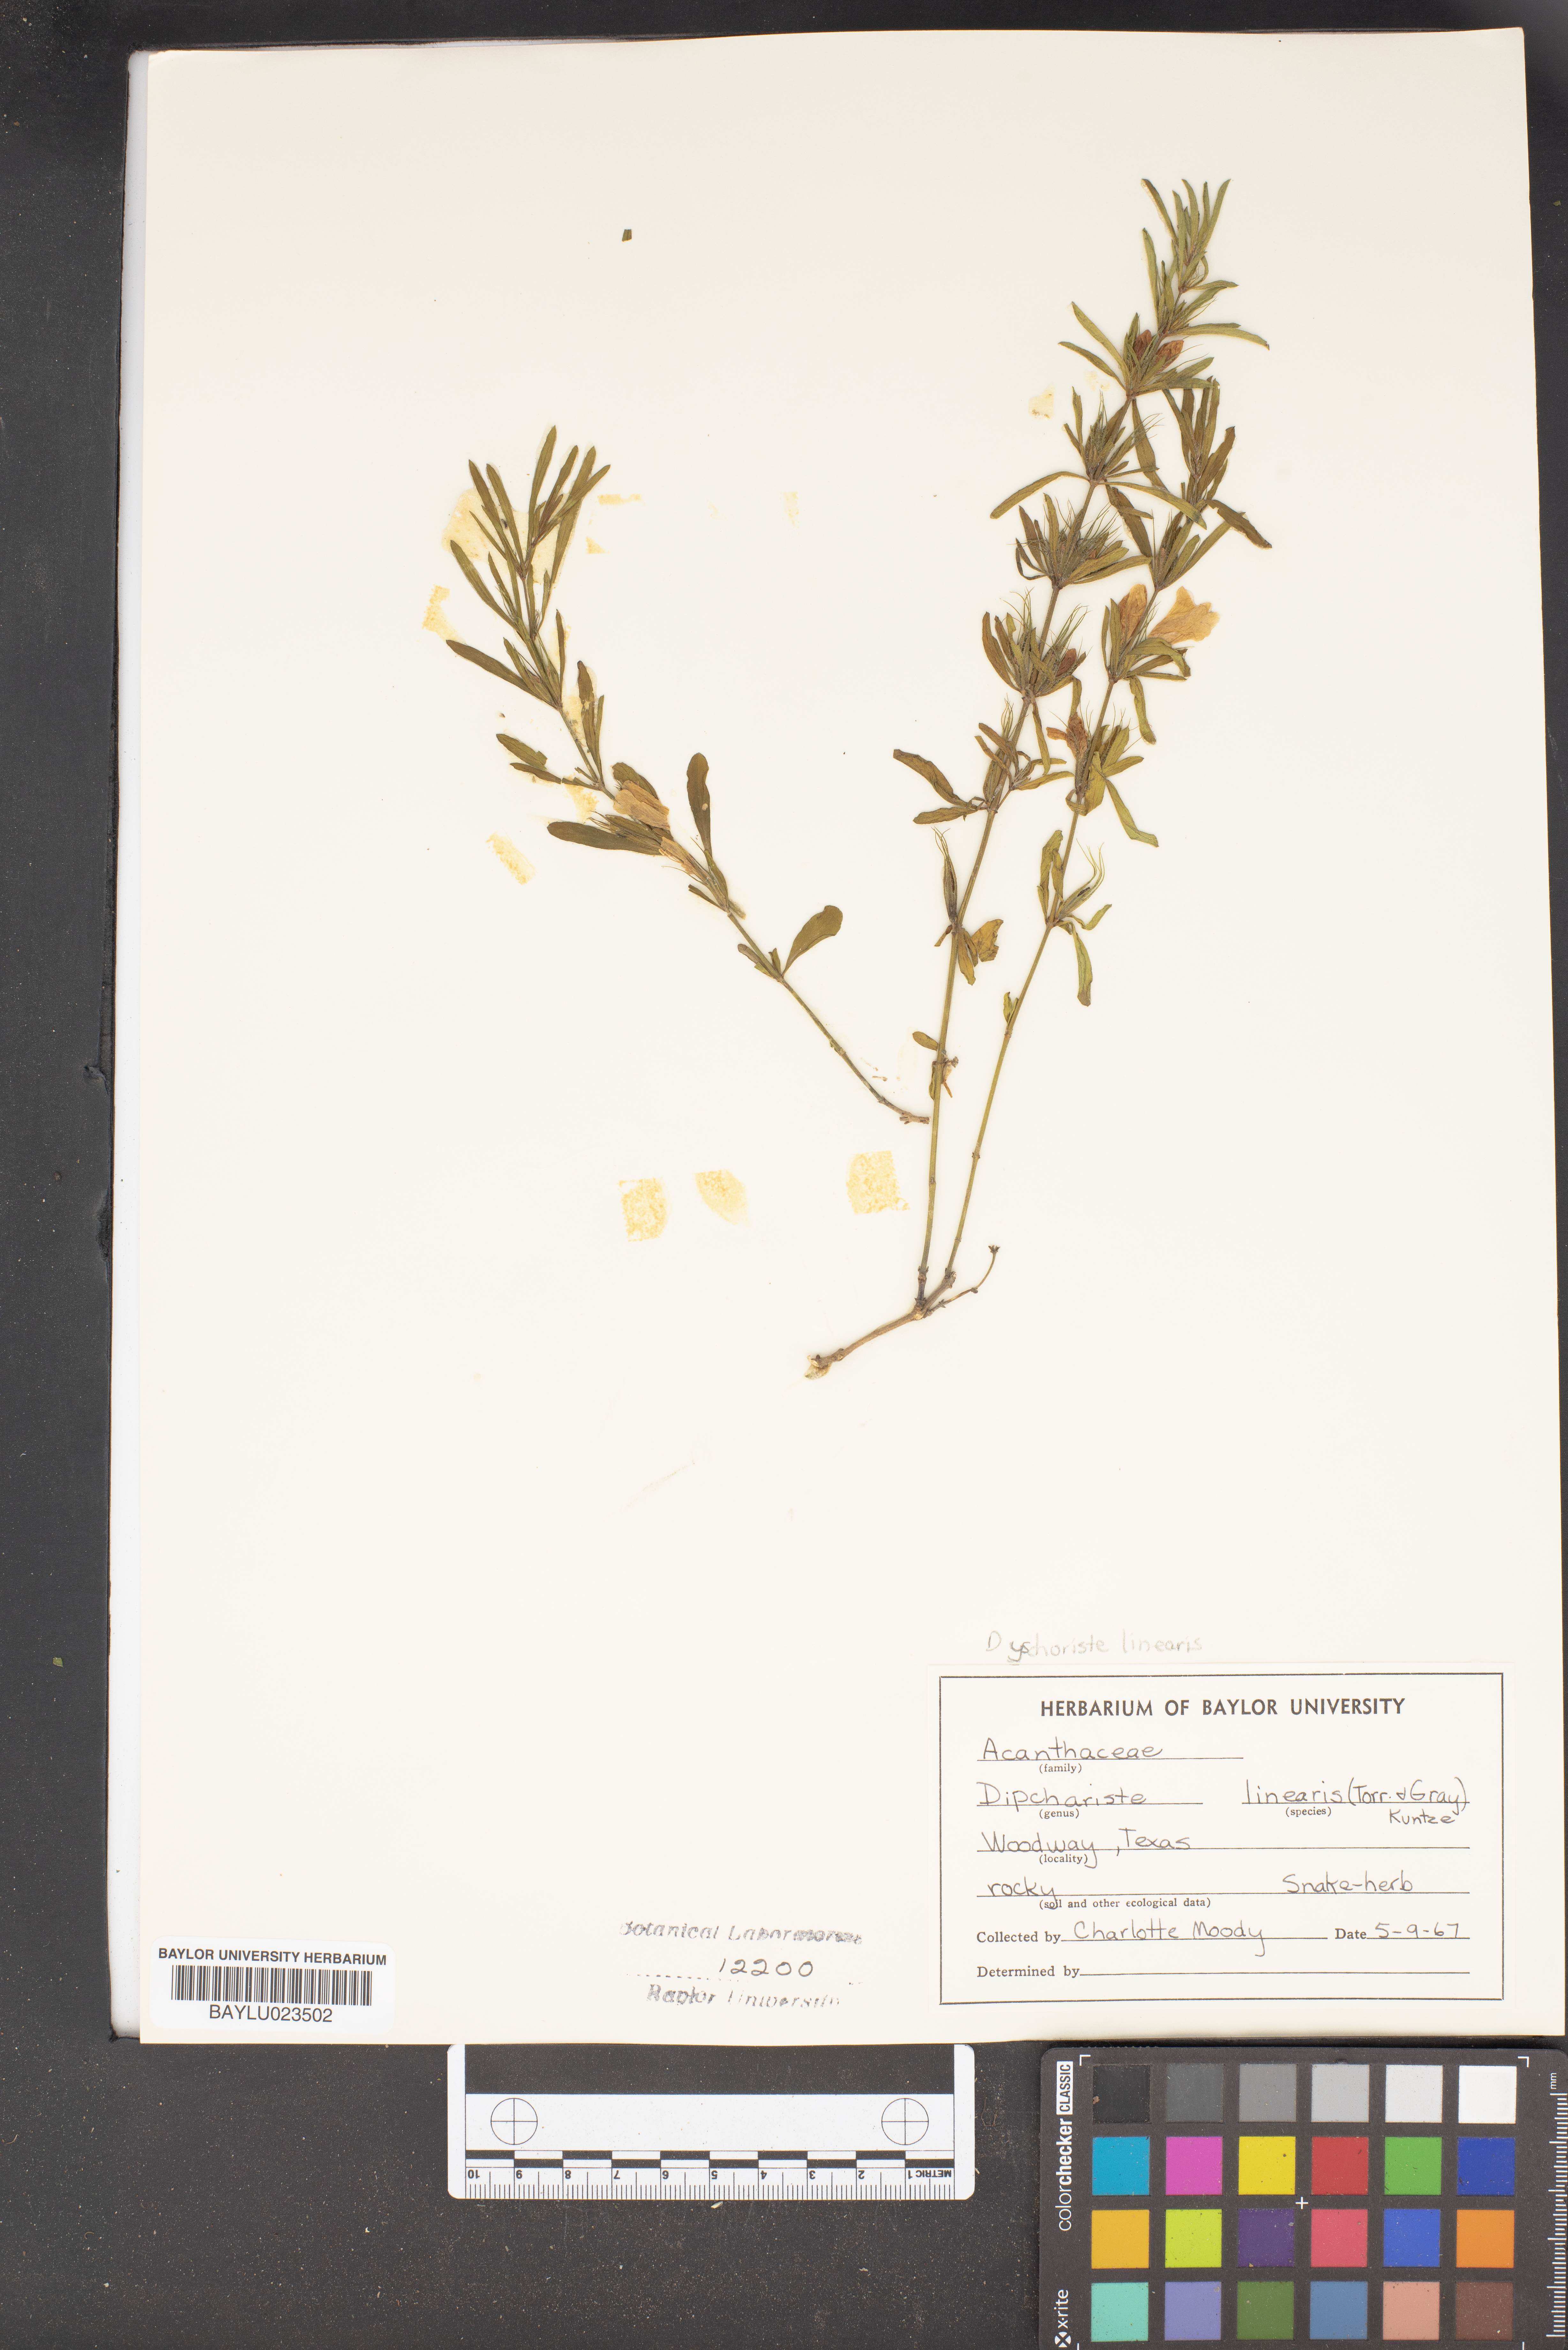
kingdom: Plantae
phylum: Tracheophyta
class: Magnoliopsida
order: Lamiales
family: Acanthaceae
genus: Dyschoriste
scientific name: Dyschoriste linearis
